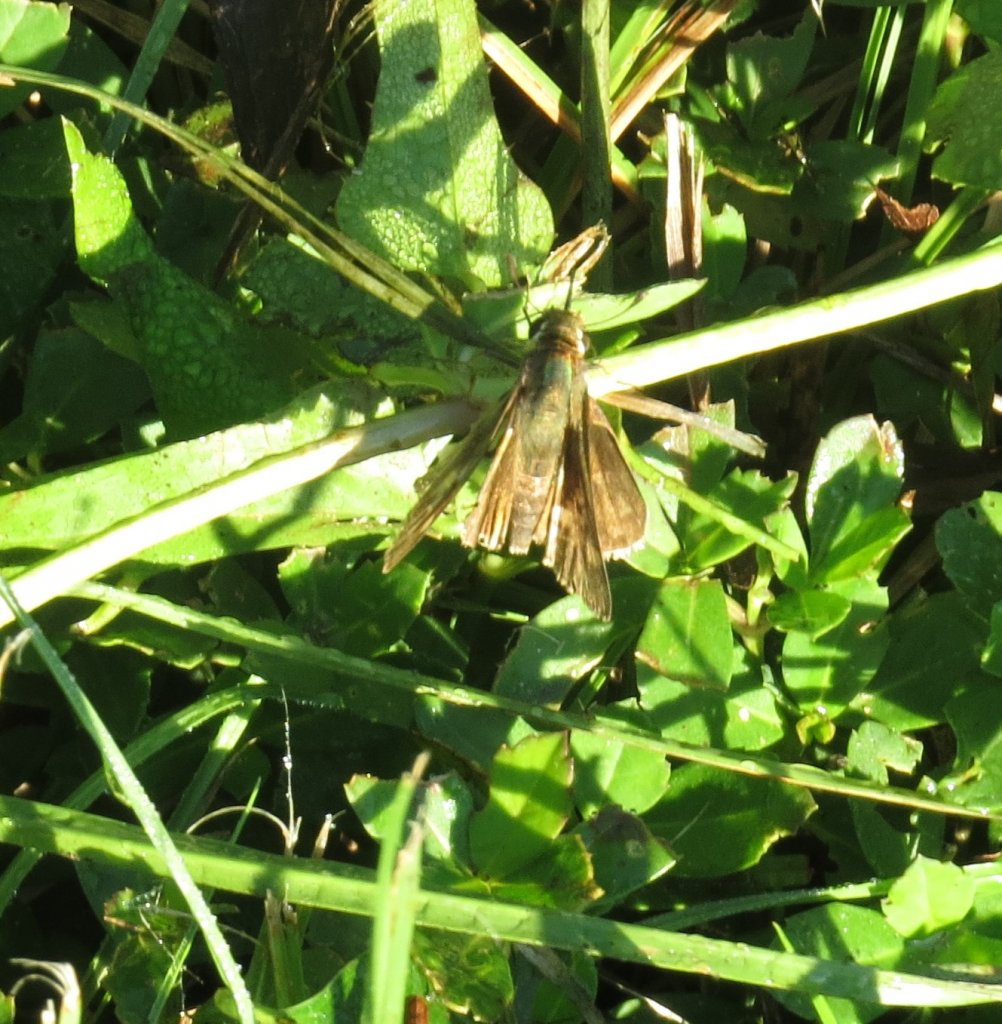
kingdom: Animalia
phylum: Arthropoda
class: Insecta
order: Lepidoptera
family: Hesperiidae
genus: Lerema
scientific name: Lerema accius
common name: Clouded Skipper
